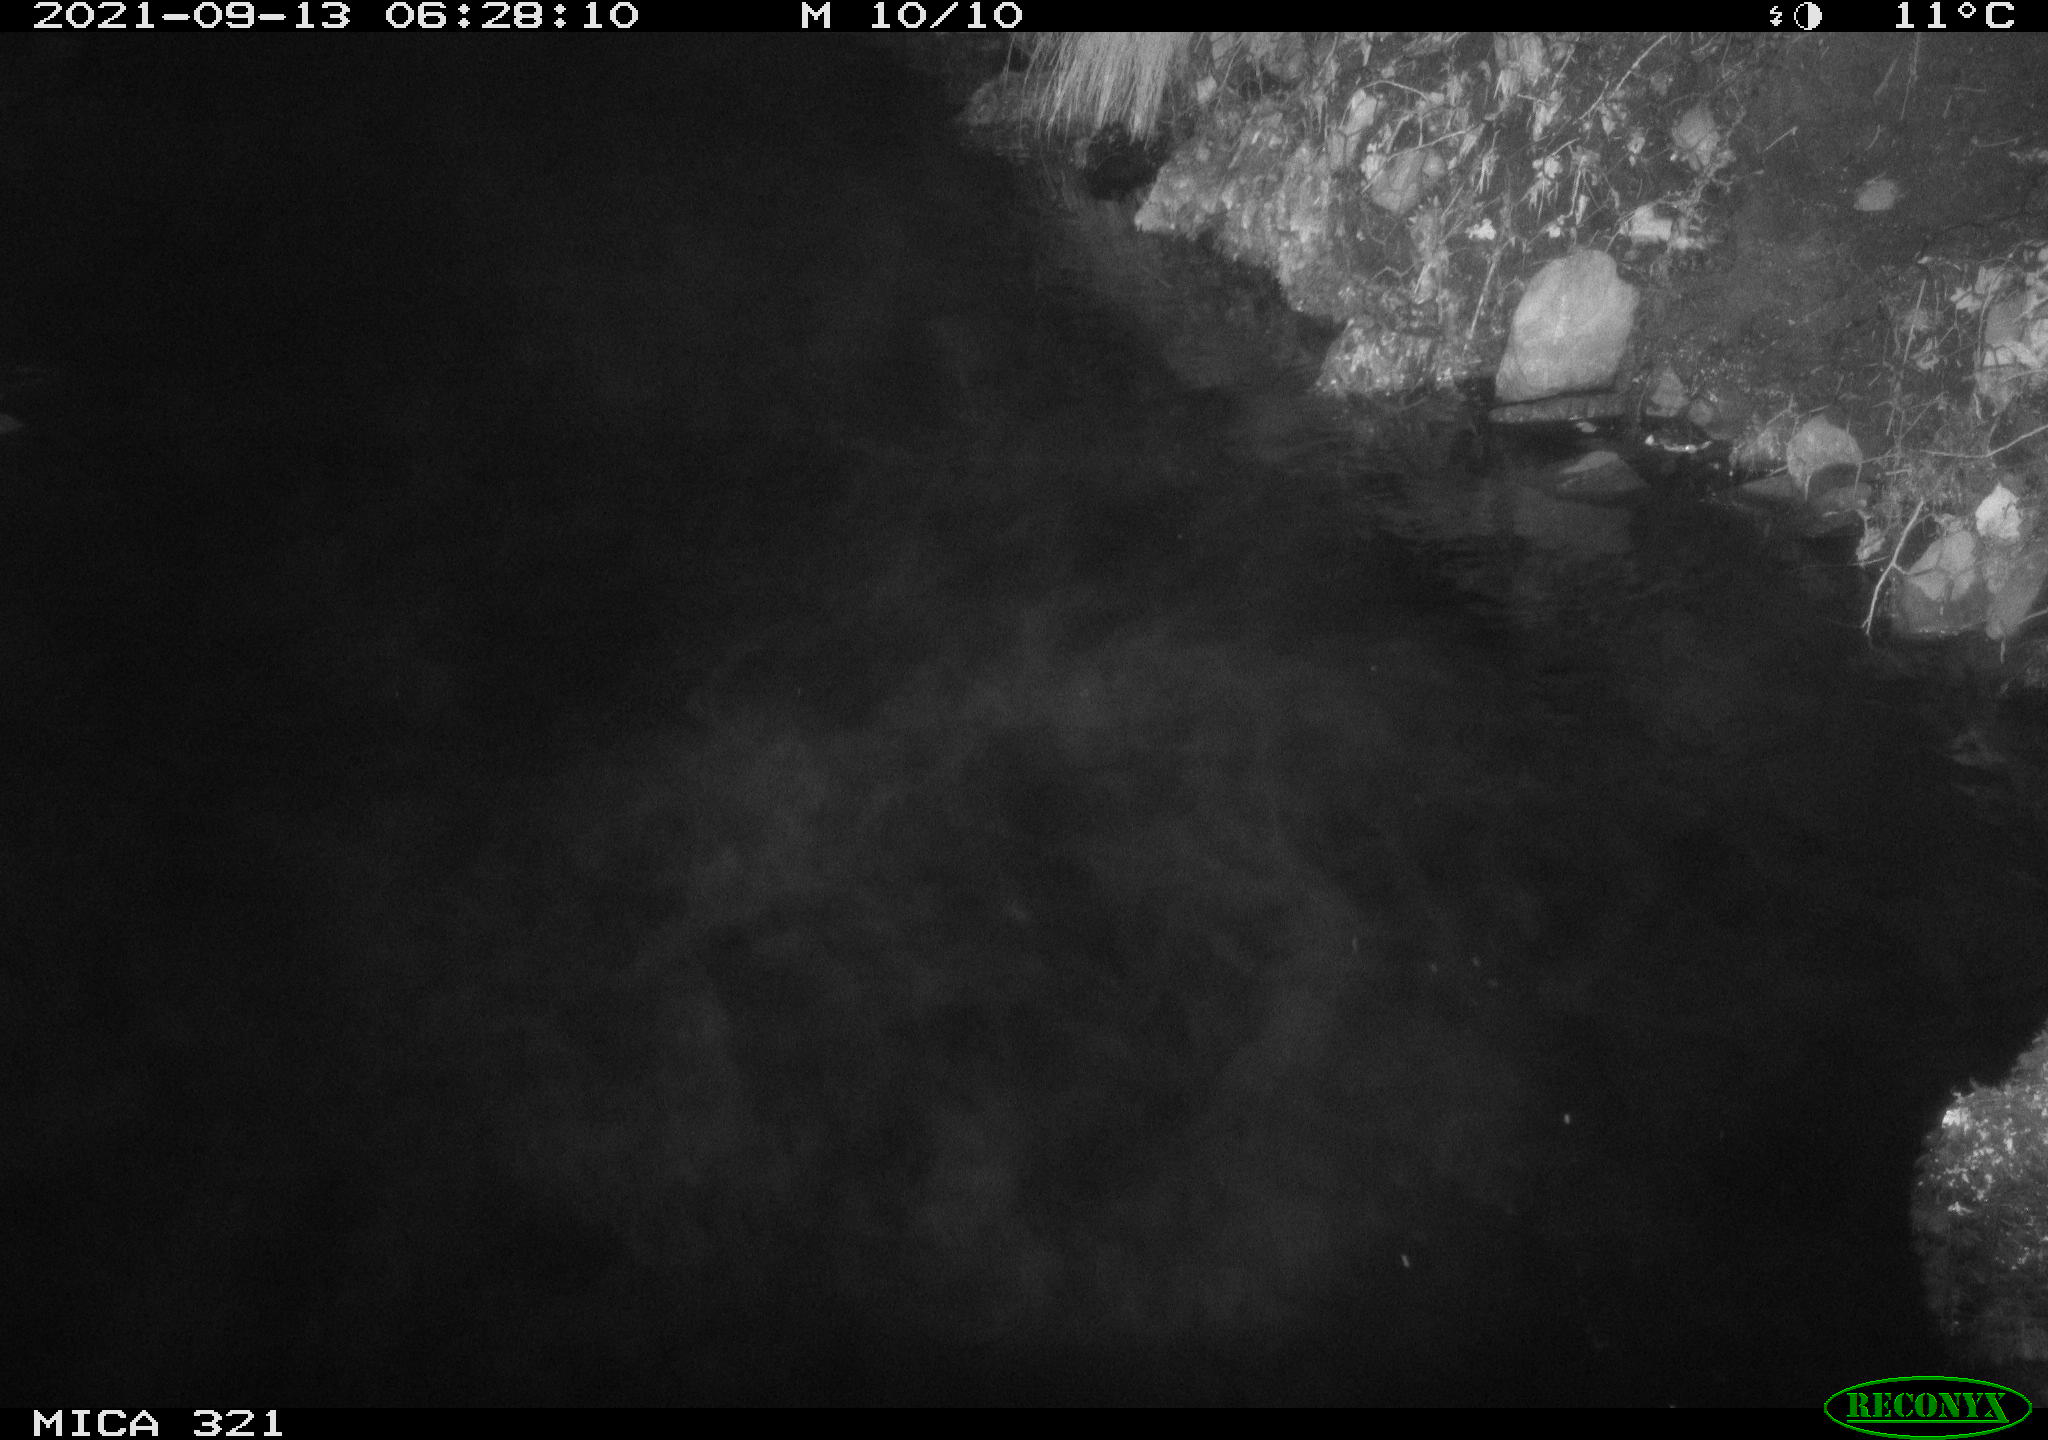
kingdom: Animalia
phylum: Chordata
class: Aves
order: Anseriformes
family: Anatidae
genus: Anas
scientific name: Anas platyrhynchos
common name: Mallard
